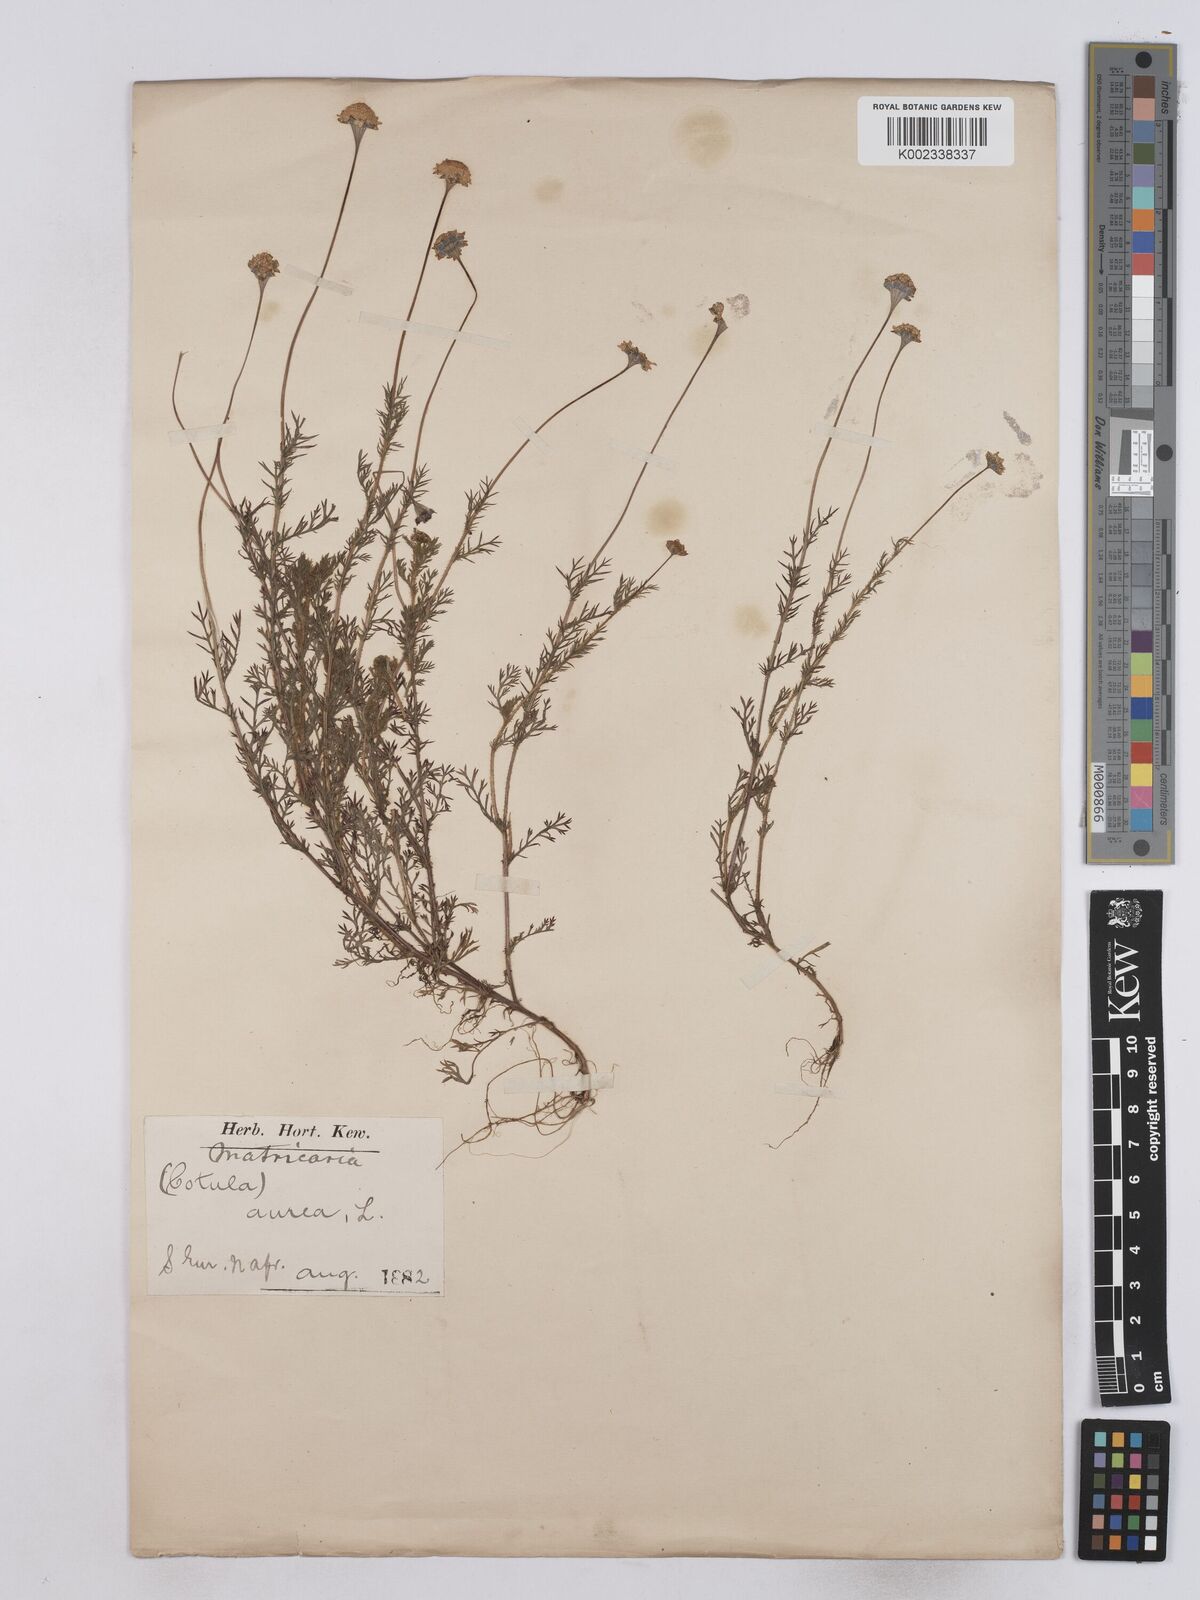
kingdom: Plantae
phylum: Tracheophyta
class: Magnoliopsida
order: Asterales
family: Asteraceae
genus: Matricaria
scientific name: Matricaria aurea
